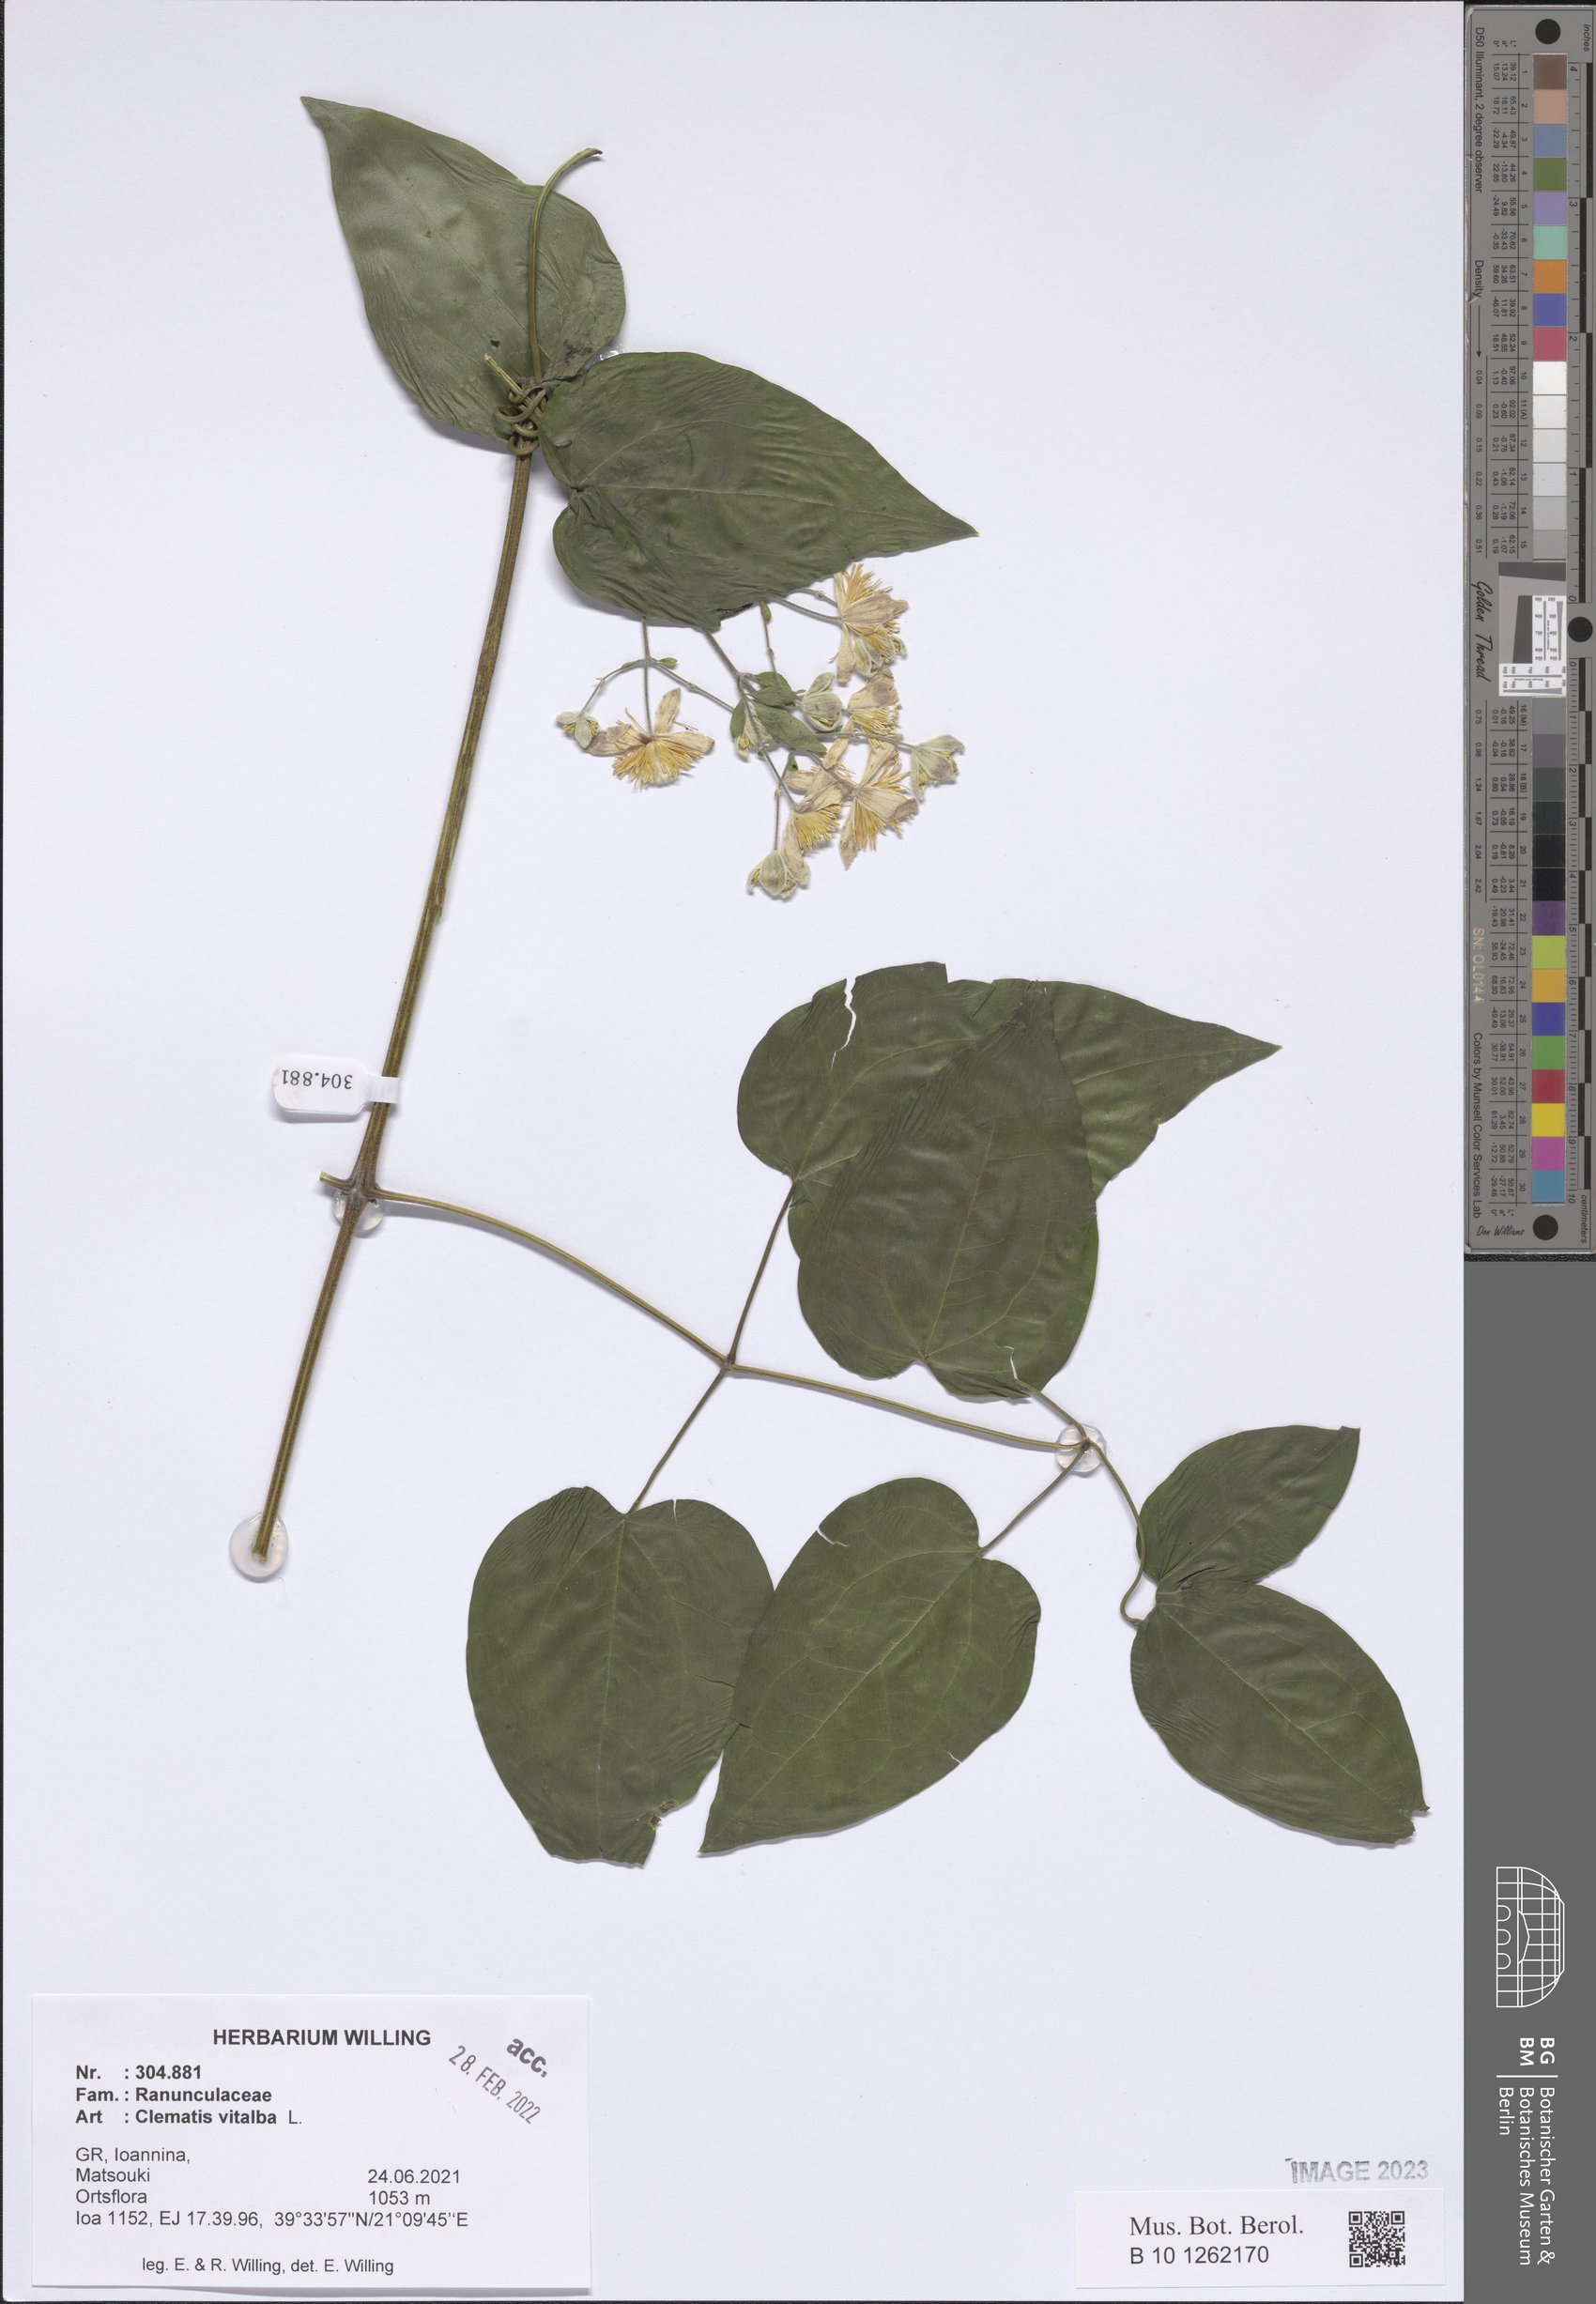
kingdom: Plantae
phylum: Tracheophyta
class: Magnoliopsida
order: Ranunculales
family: Ranunculaceae
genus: Clematis
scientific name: Clematis vitalba
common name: Evergreen clematis
